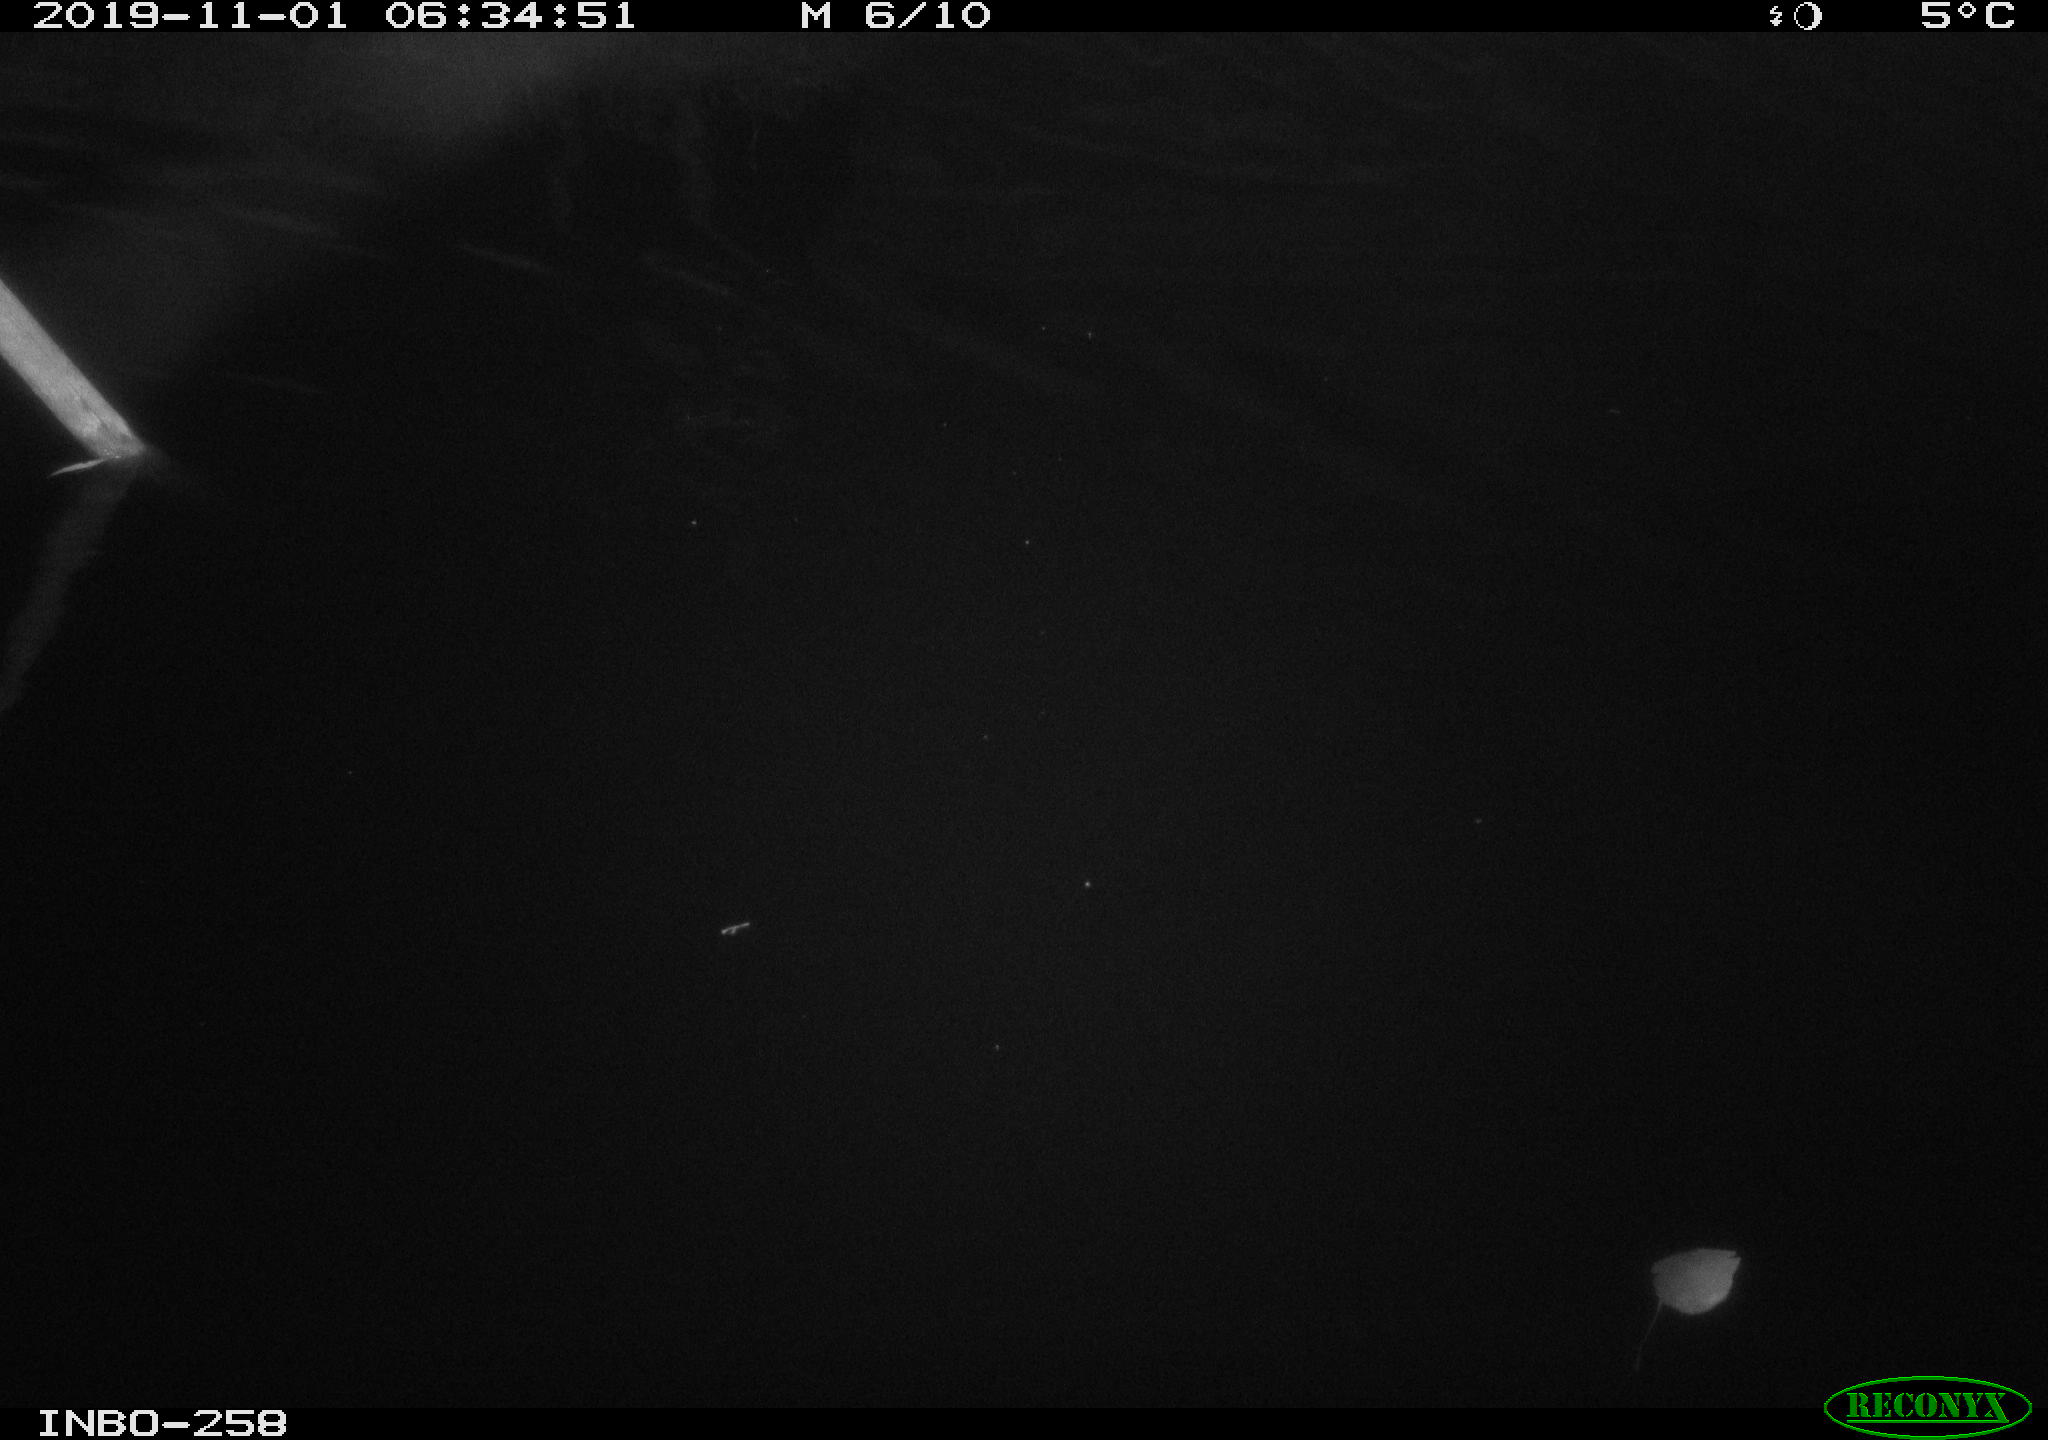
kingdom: Animalia
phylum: Chordata
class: Aves
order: Anseriformes
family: Anatidae
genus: Anas
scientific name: Anas platyrhynchos
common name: Mallard
